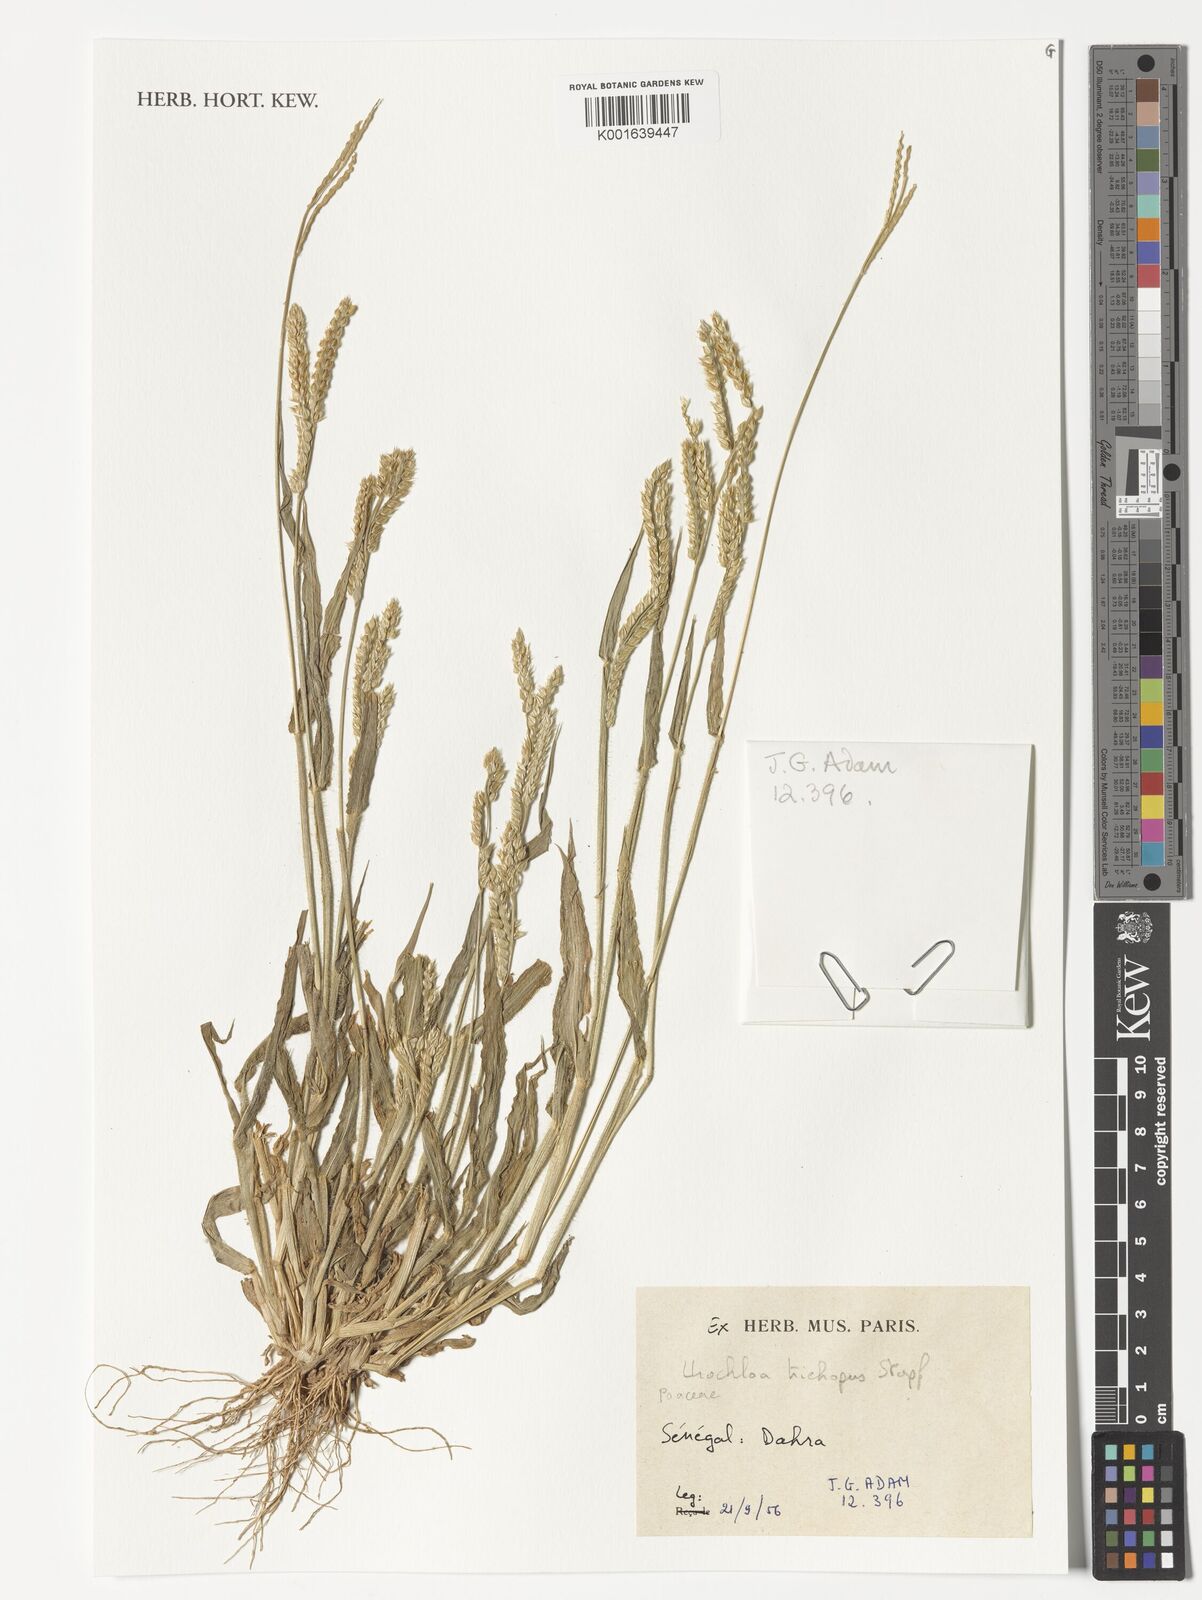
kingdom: Plantae
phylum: Tracheophyta
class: Liliopsida
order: Poales
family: Poaceae
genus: Urochloa
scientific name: Urochloa trichopus
